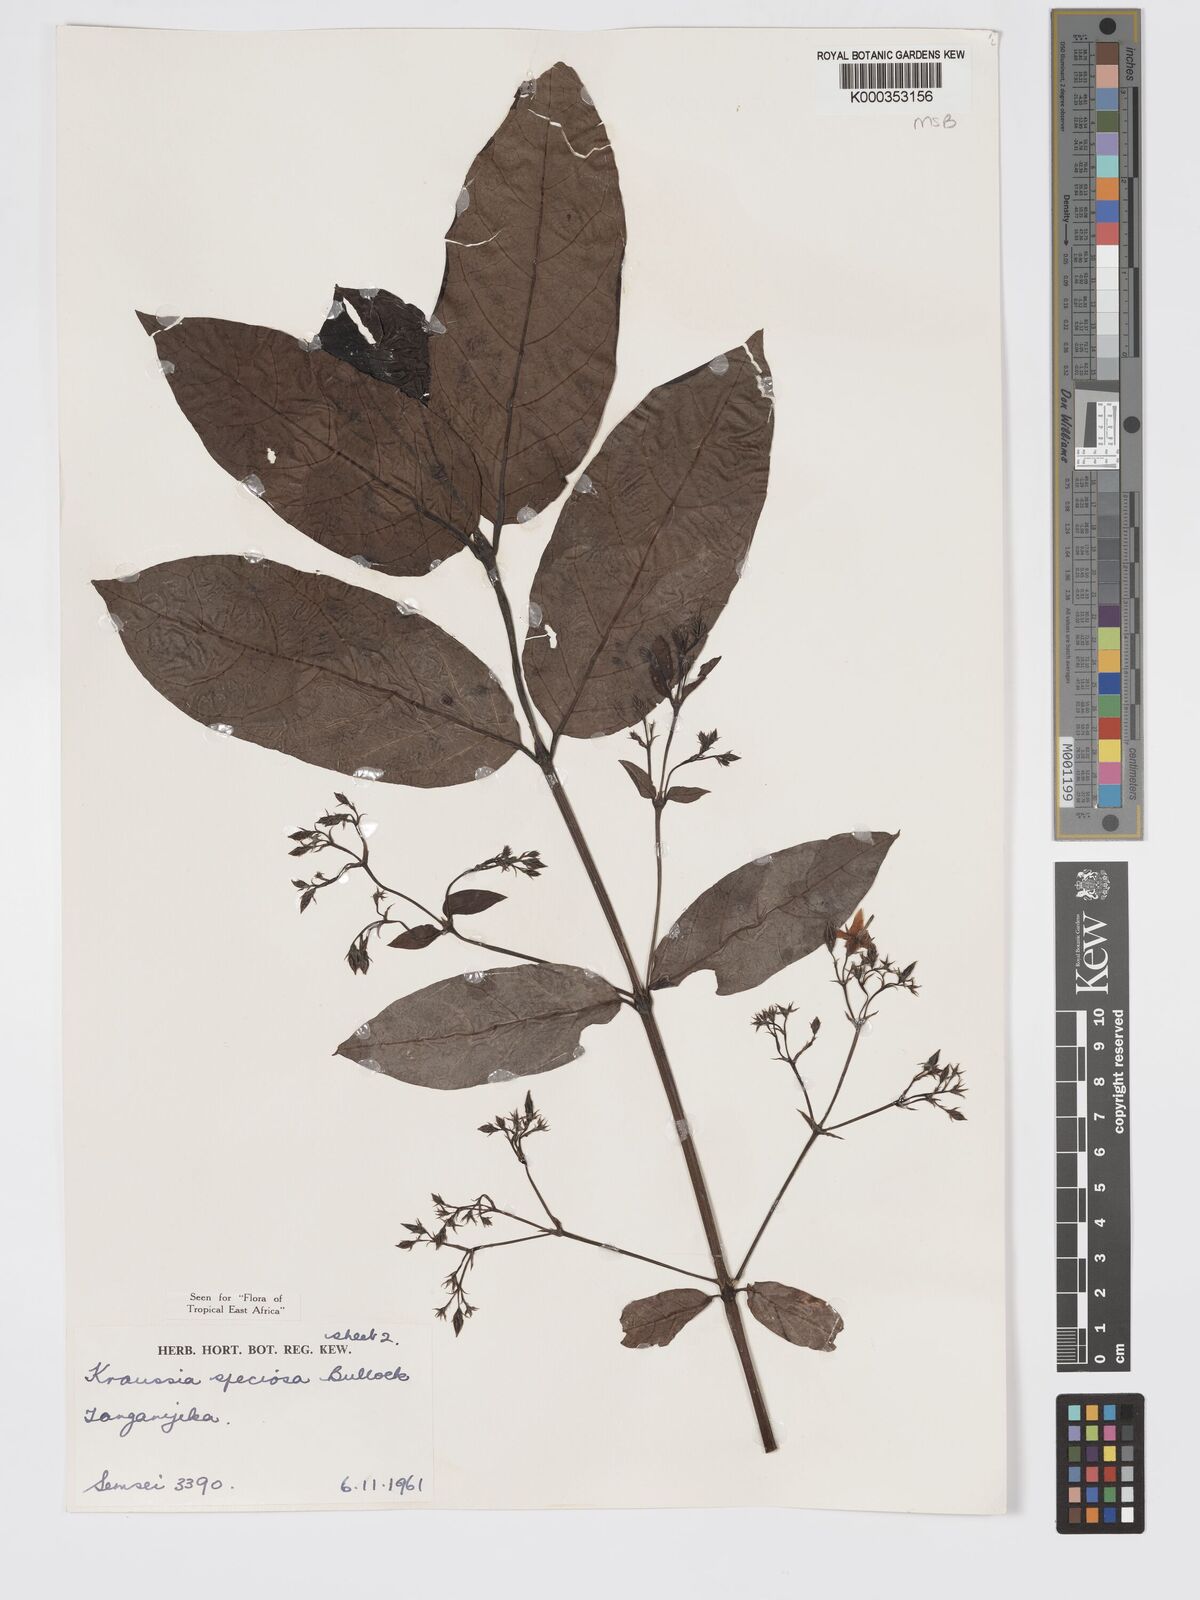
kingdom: Plantae
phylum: Tracheophyta
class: Magnoliopsida
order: Gentianales
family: Rubiaceae
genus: Kraussia
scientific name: Kraussia speciosa
